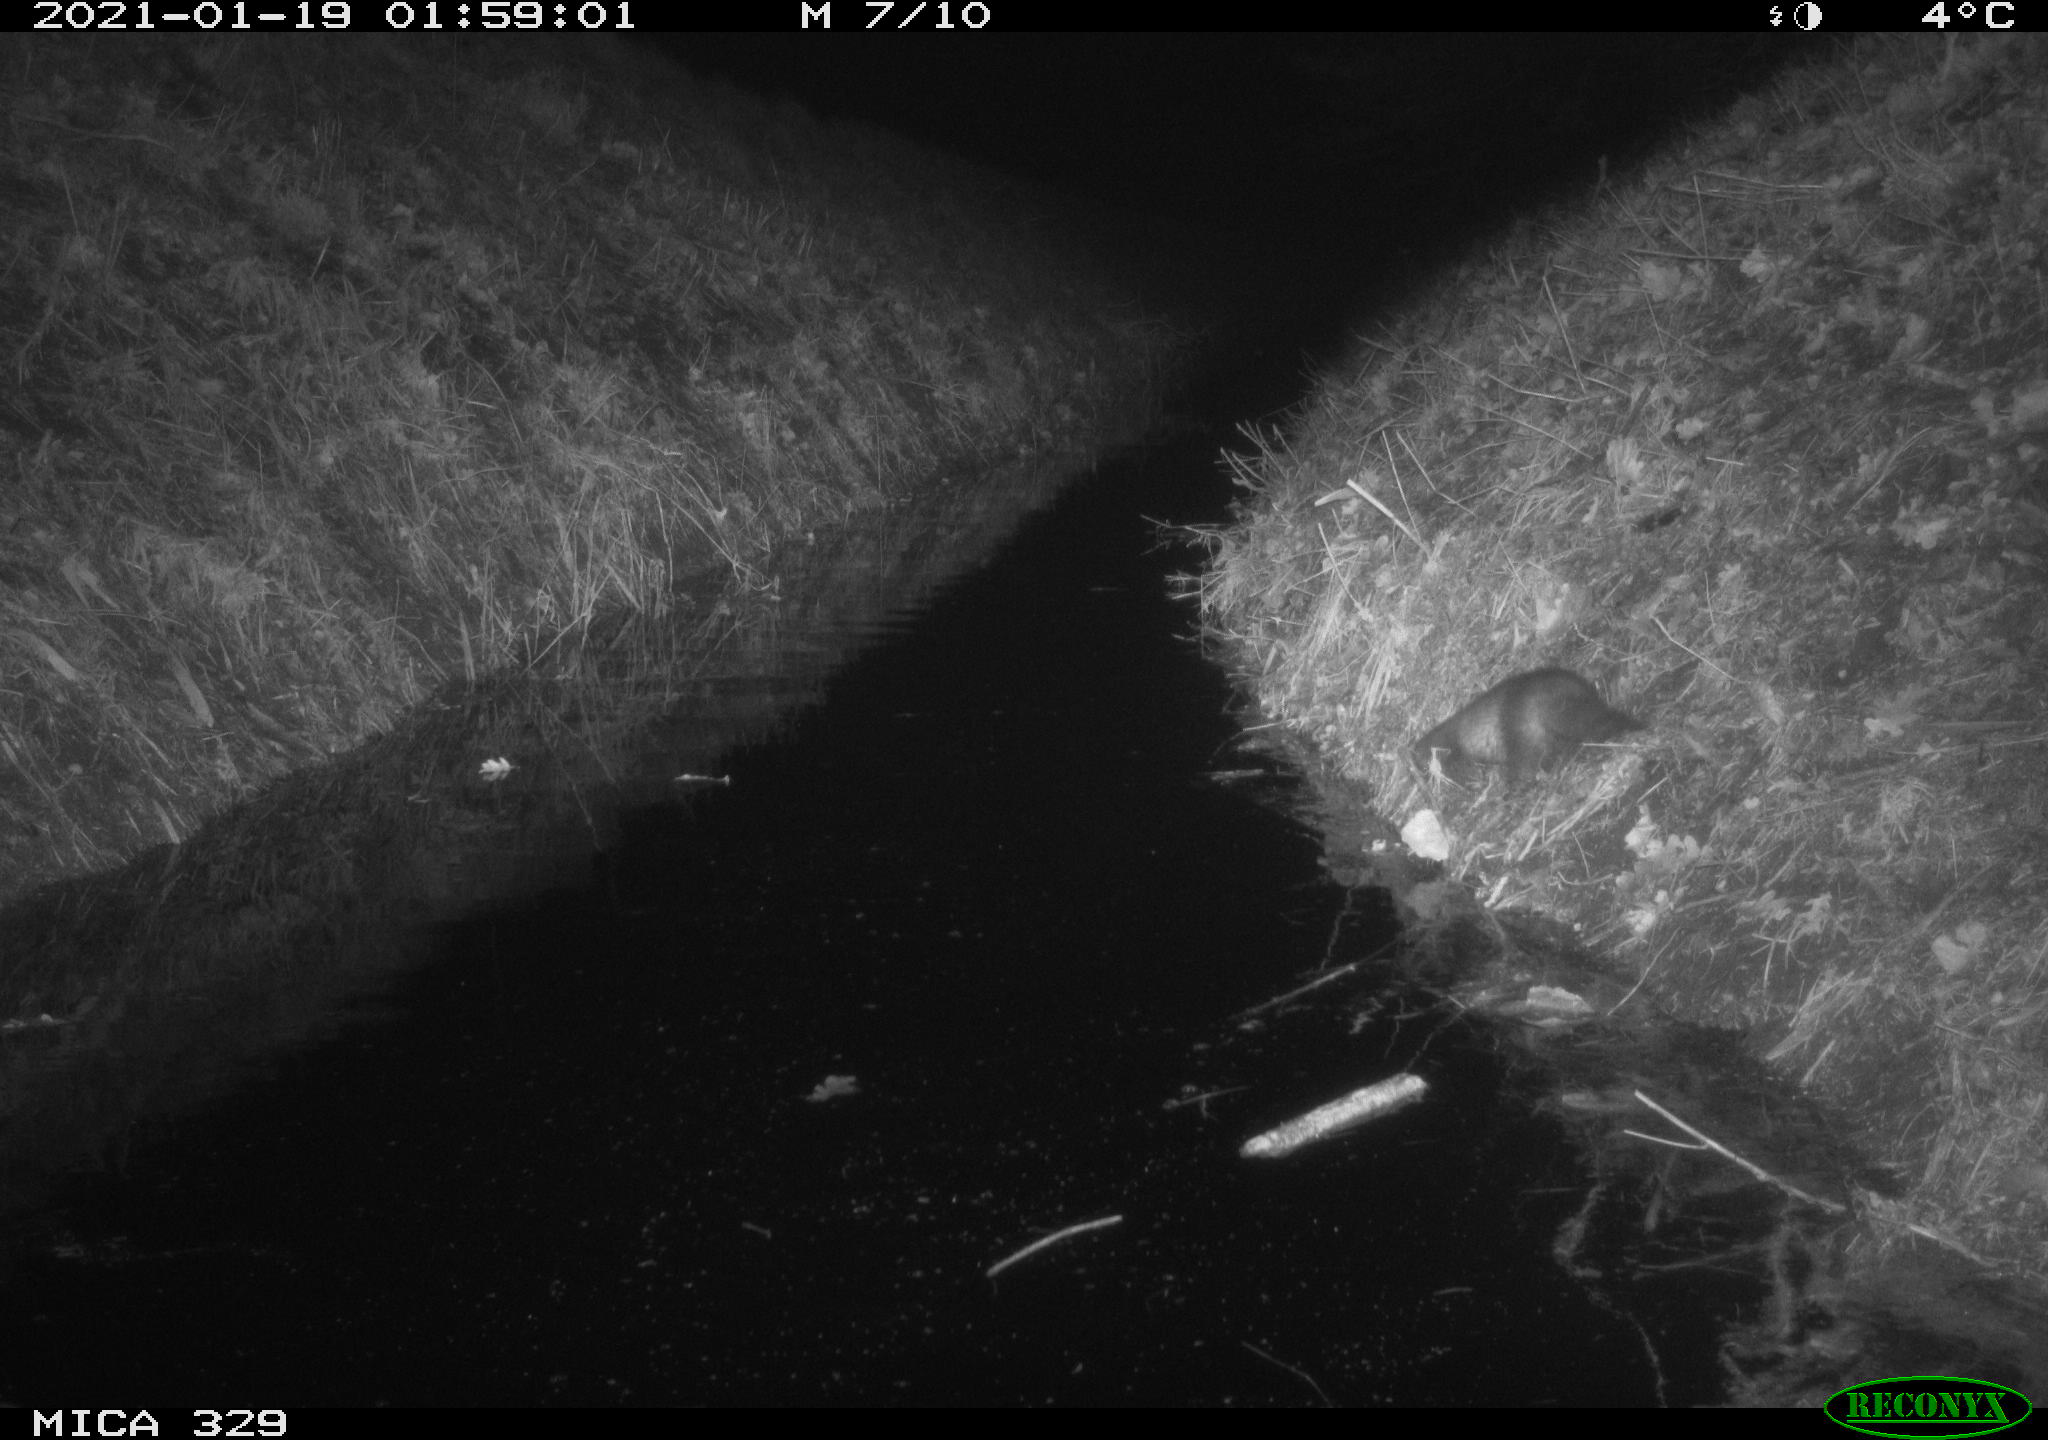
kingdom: Animalia
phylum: Chordata
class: Mammalia
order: Carnivora
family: Mustelidae
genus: Mustela
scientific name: Mustela putorius
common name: European polecat
